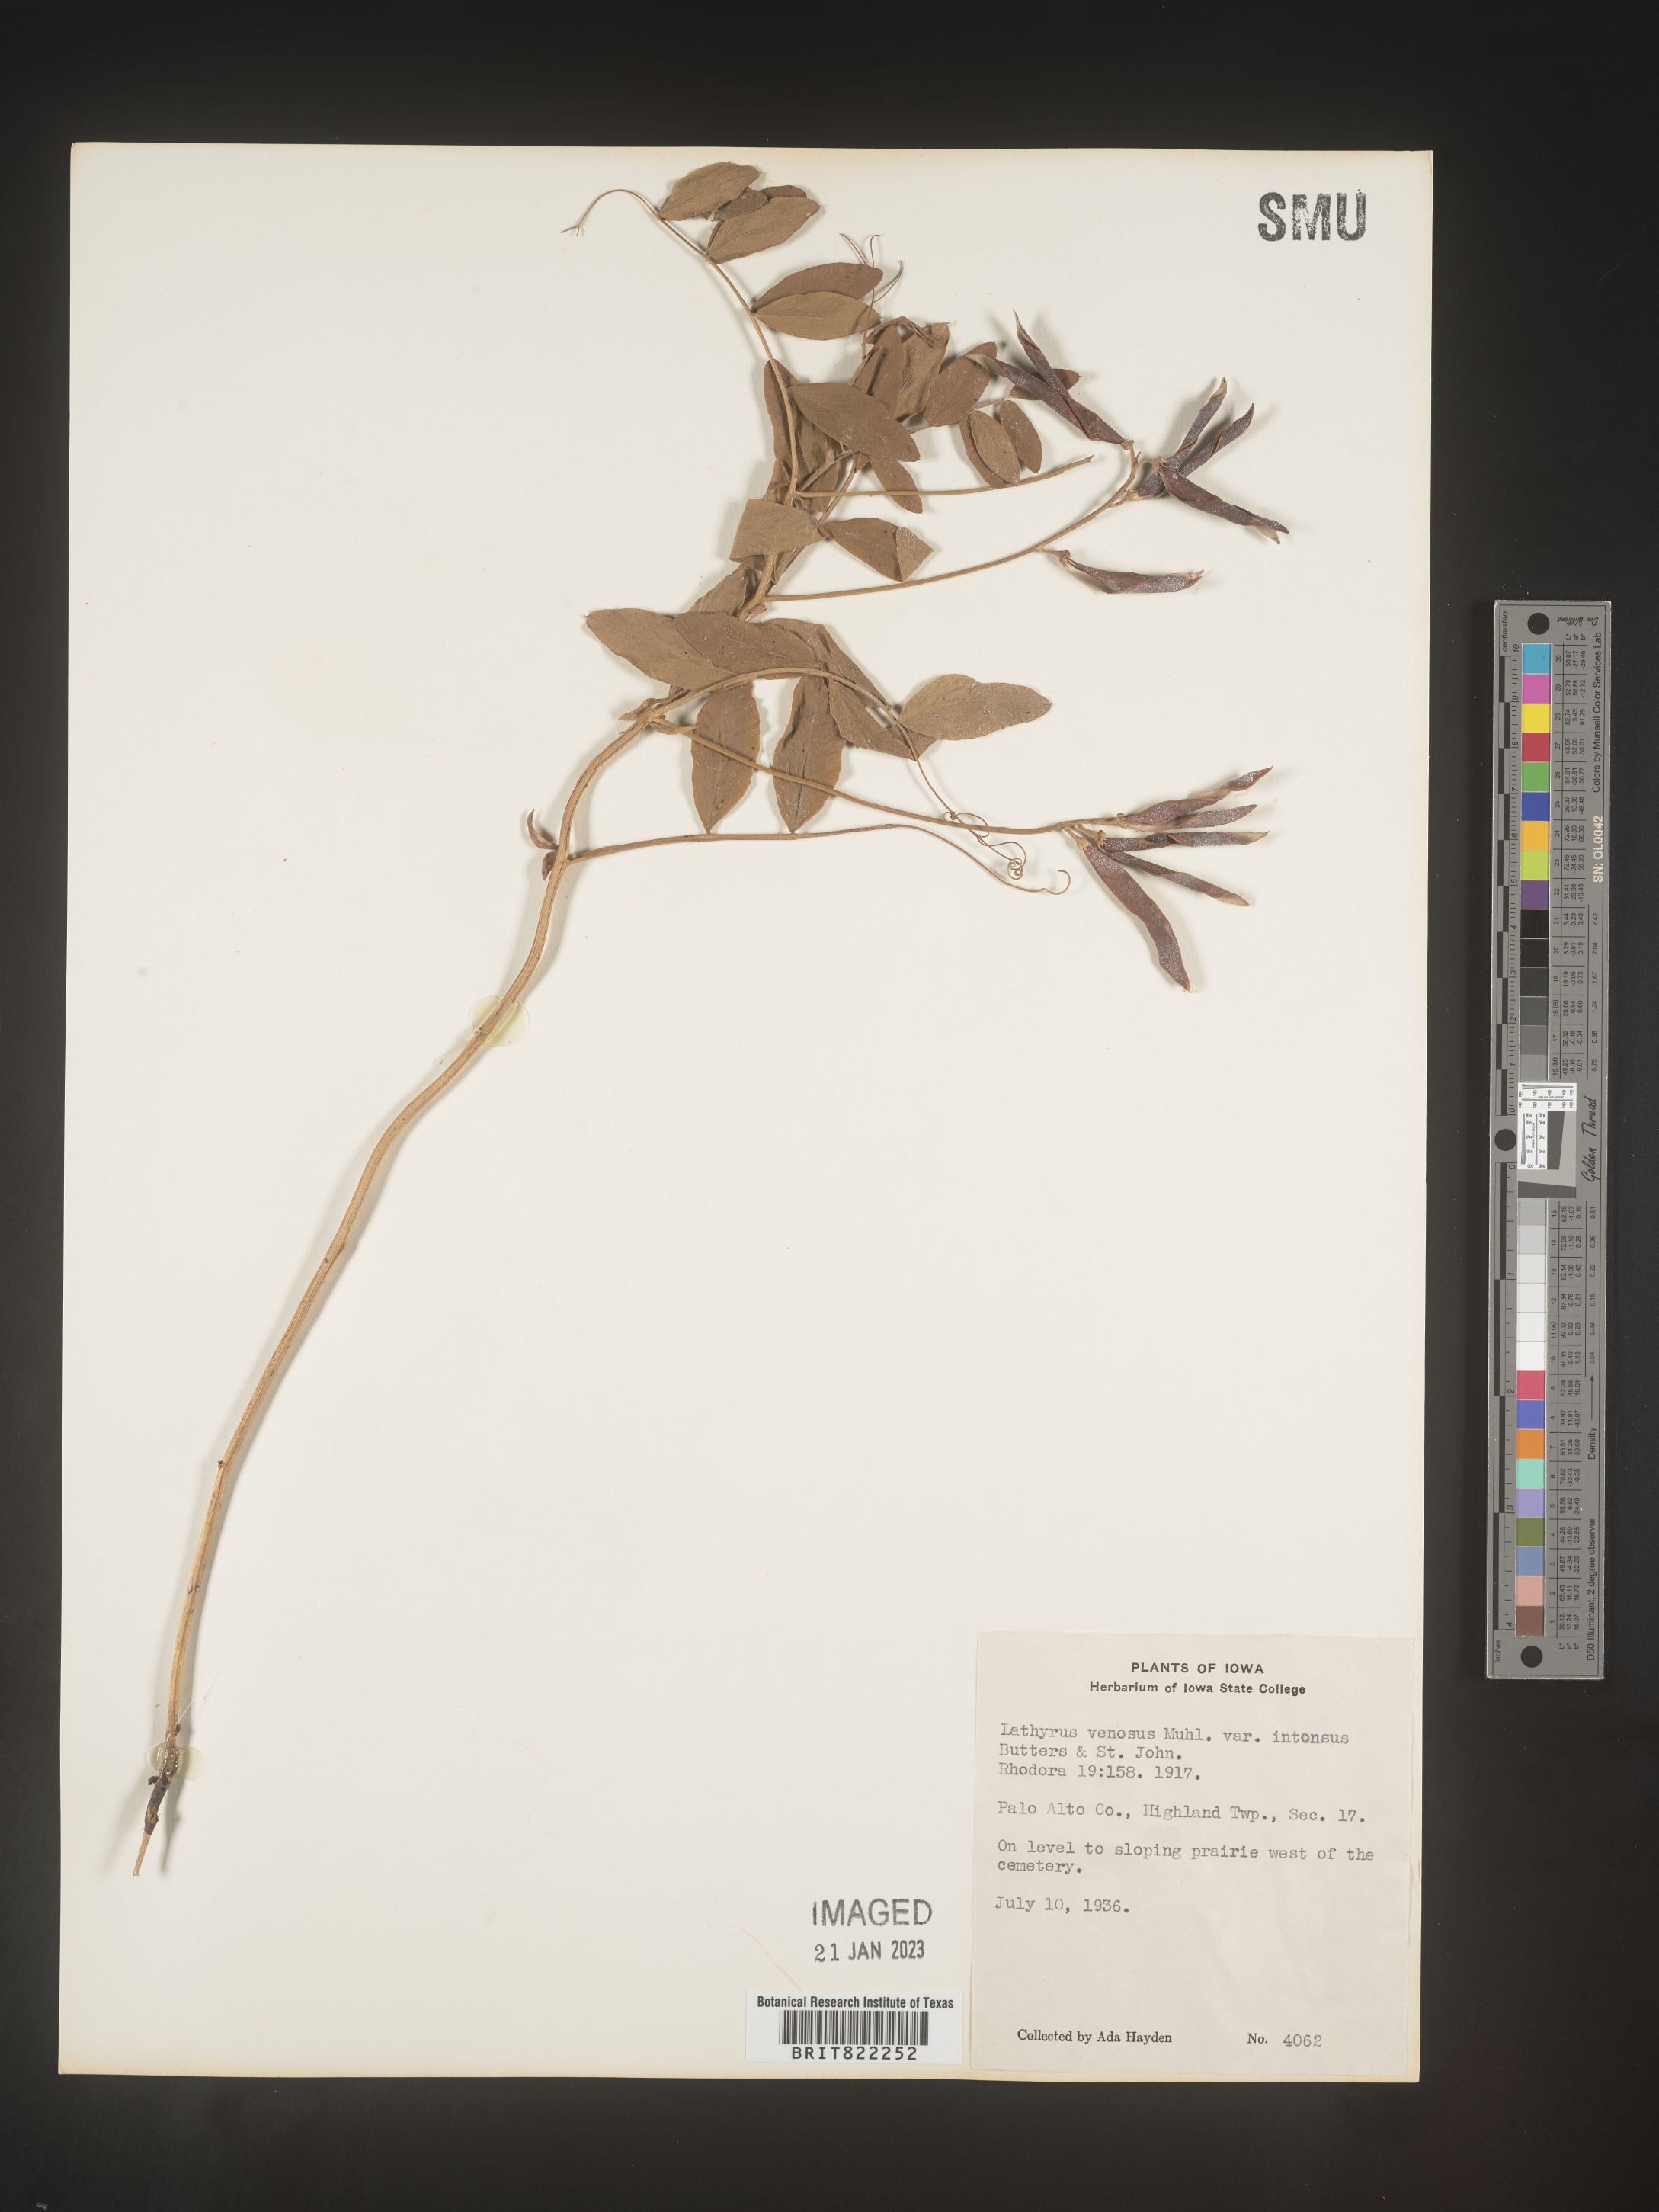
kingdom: Plantae
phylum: Tracheophyta
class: Magnoliopsida
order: Fabales
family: Fabaceae
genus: Lathyrus
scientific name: Lathyrus venosus
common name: Forest-pea
